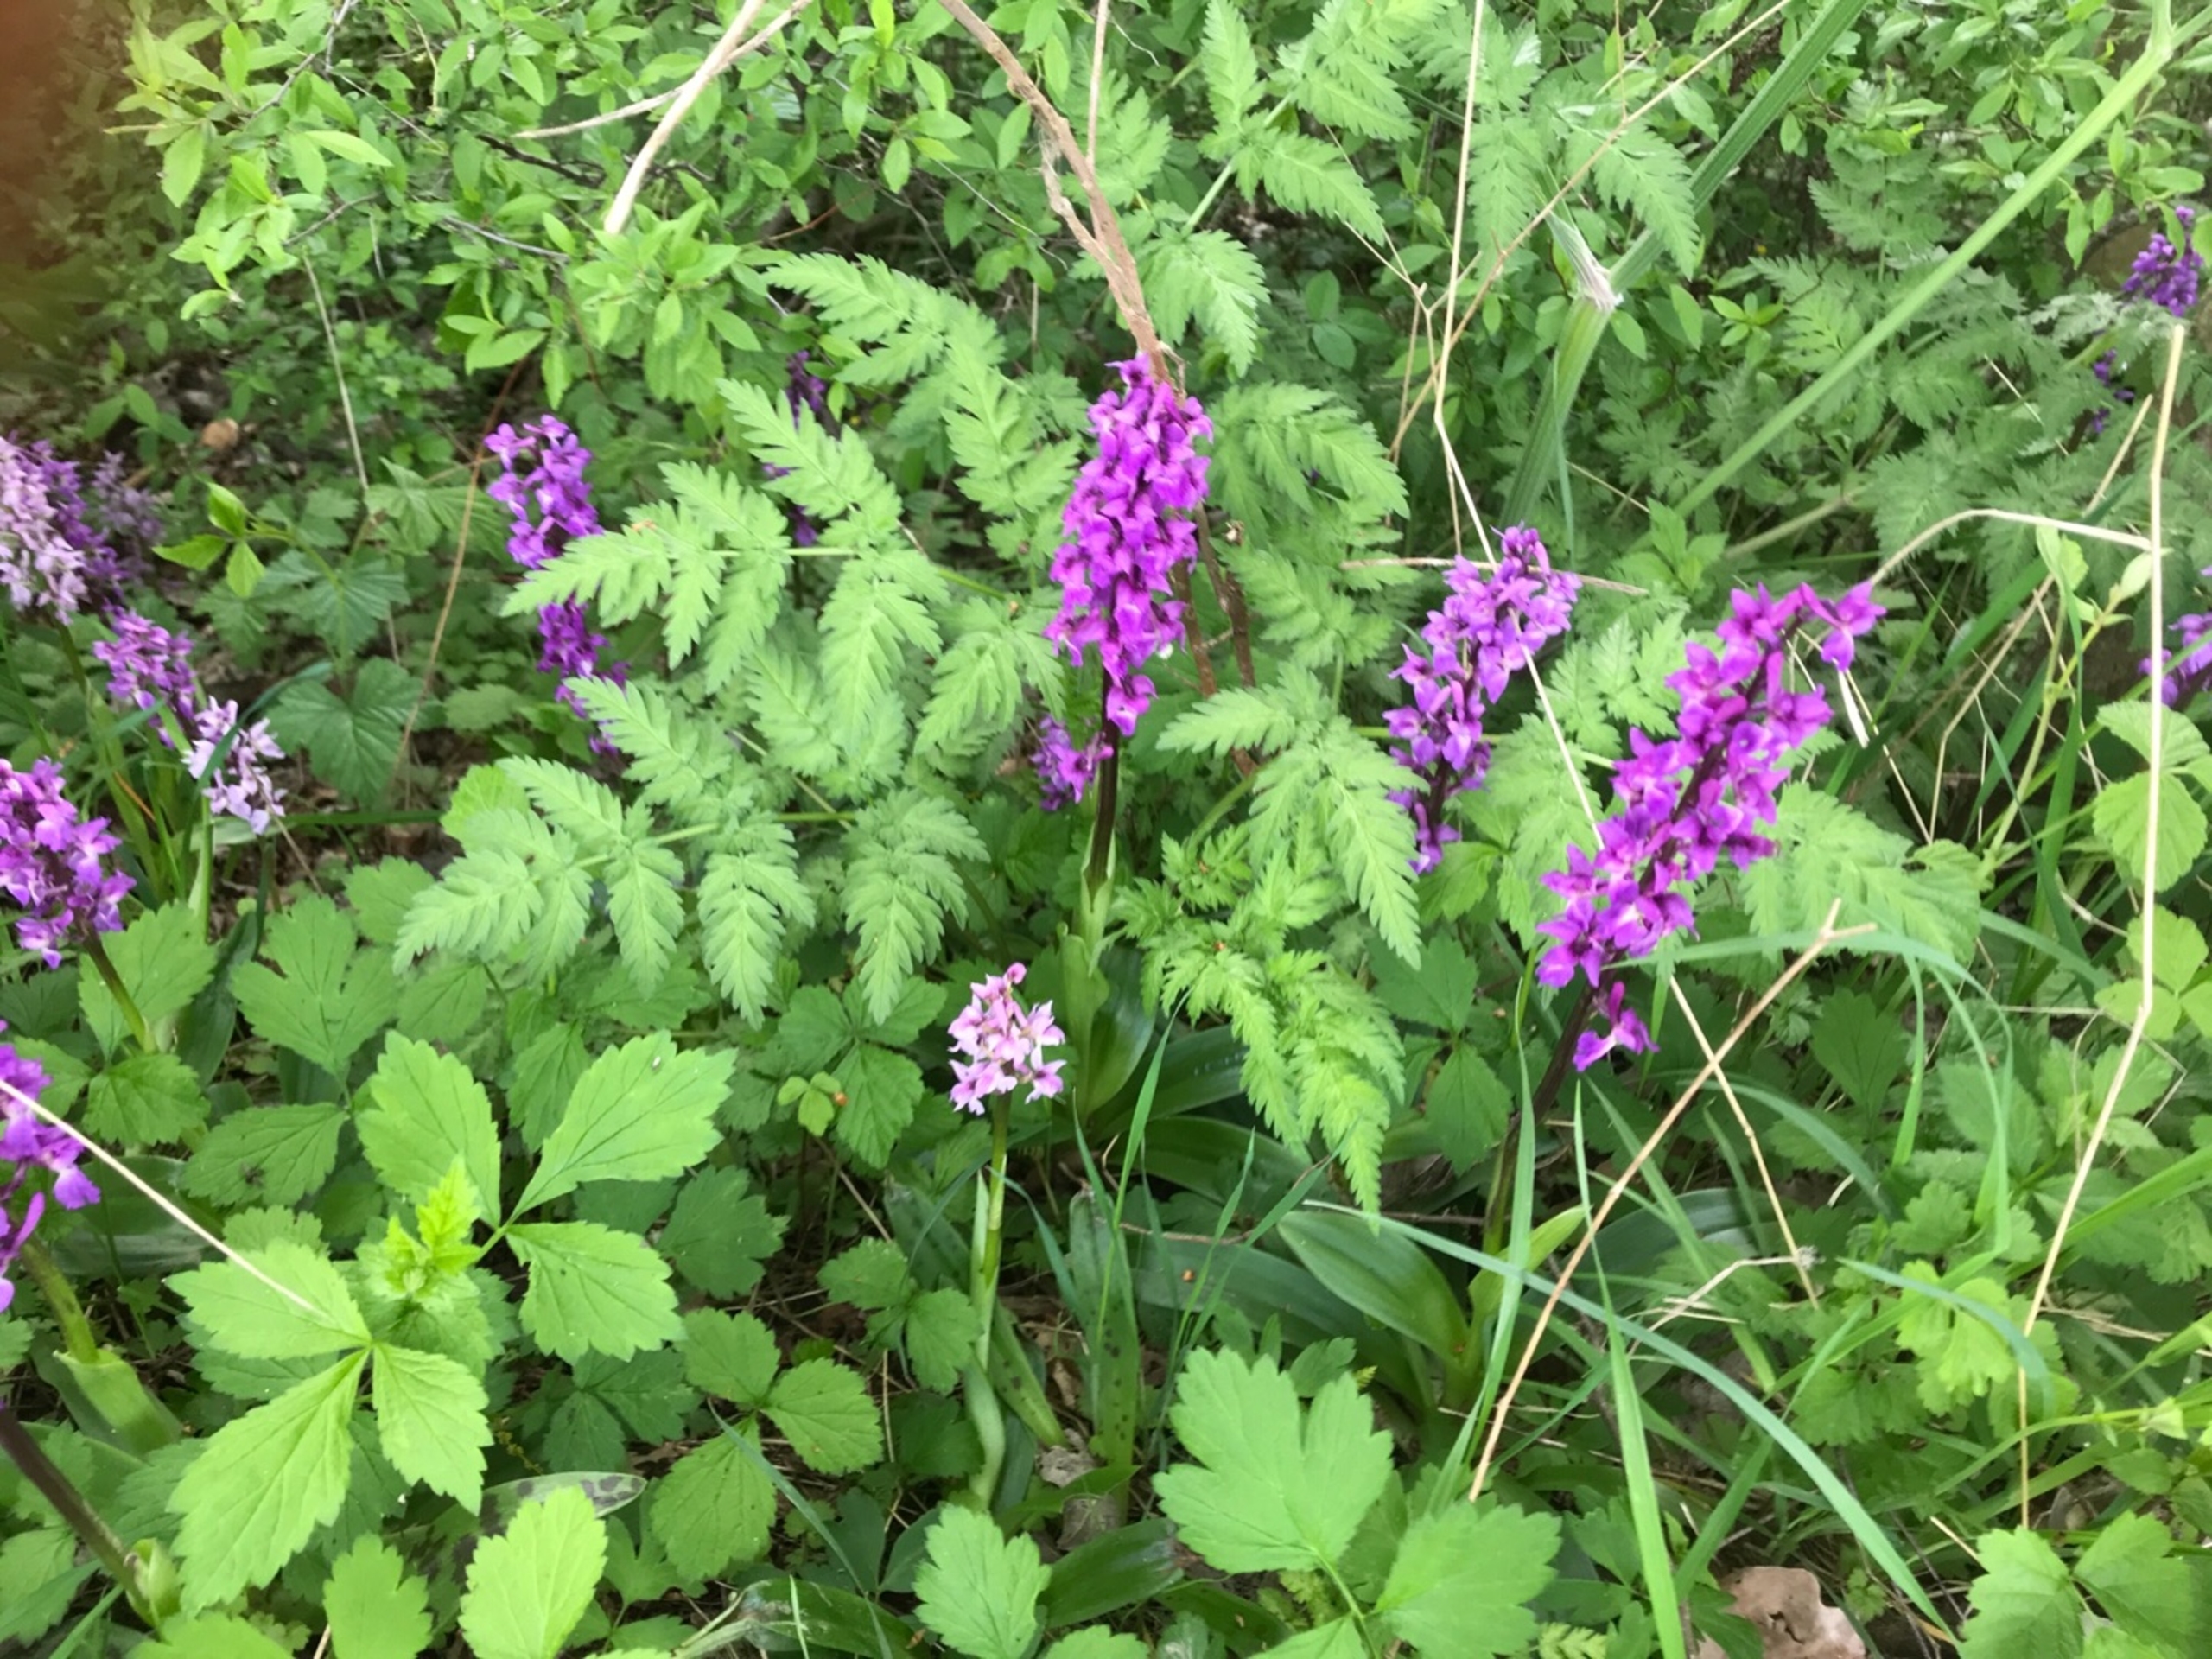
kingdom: Plantae
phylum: Tracheophyta
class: Liliopsida
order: Asparagales
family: Orchidaceae
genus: Orchis
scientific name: Orchis mascula
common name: Tyndakset gøgeurt
